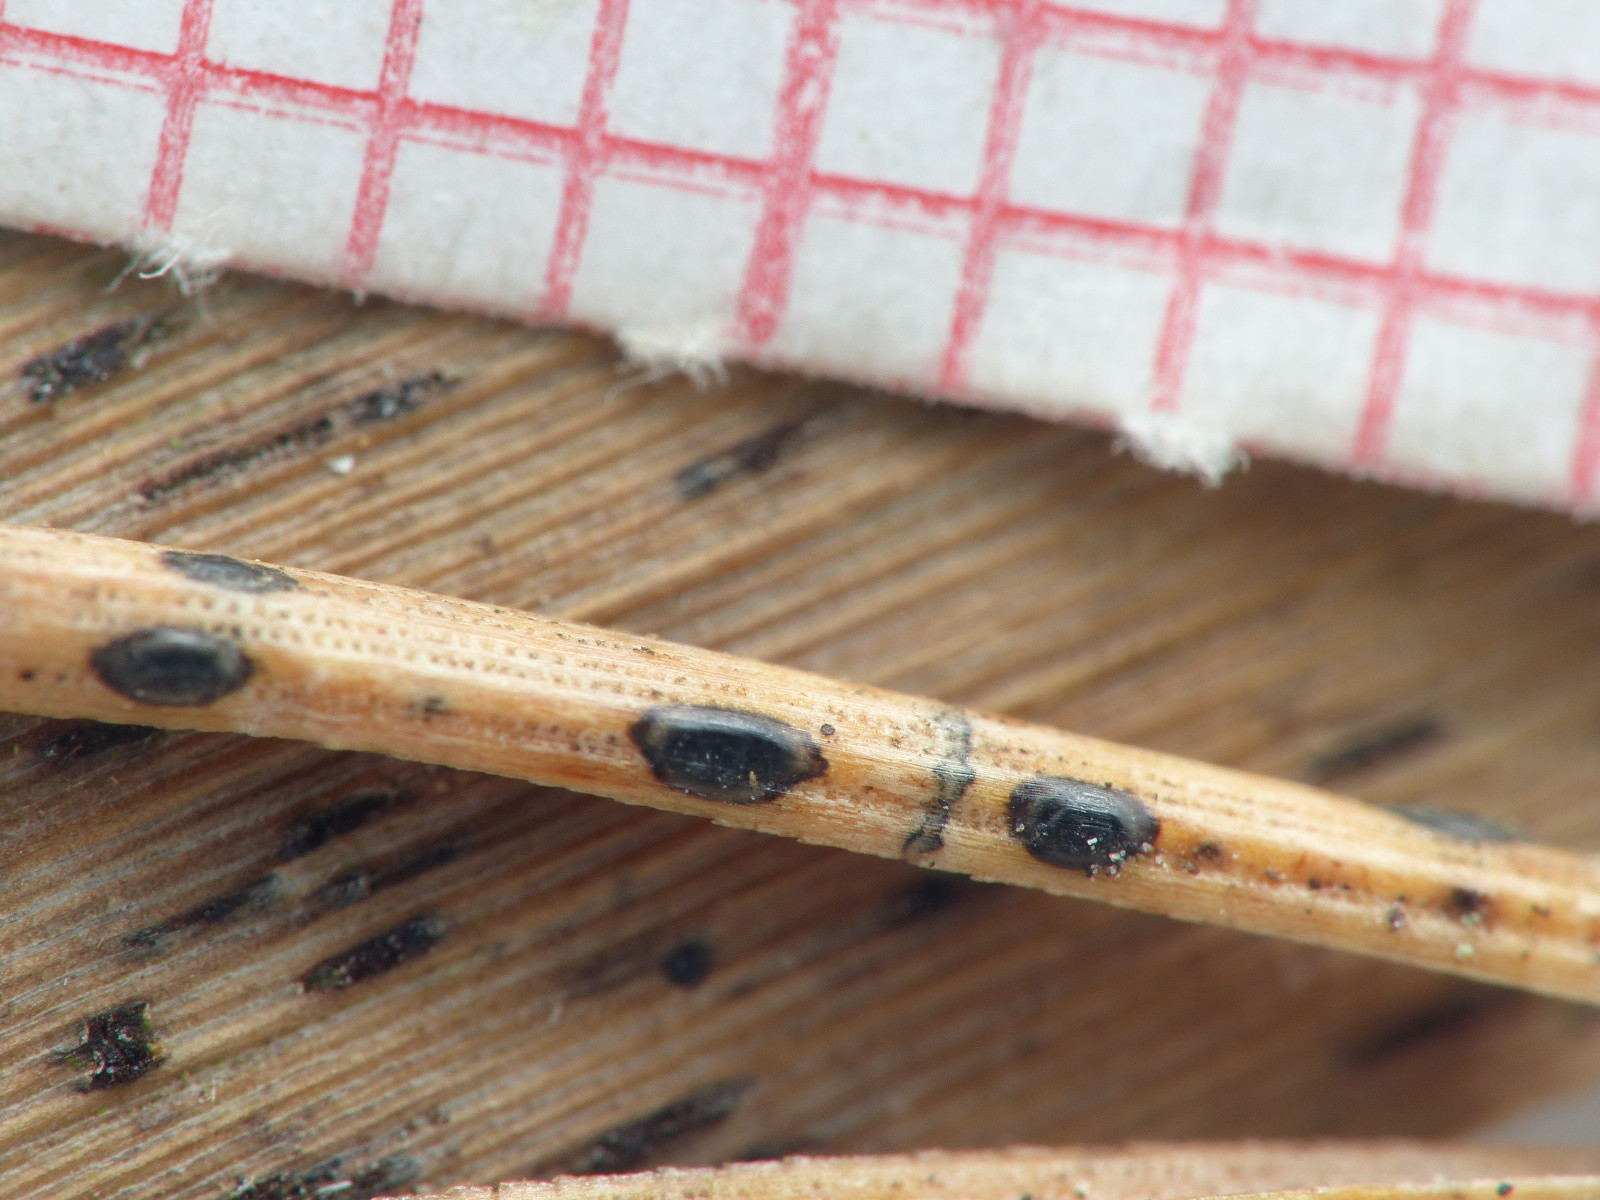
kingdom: Fungi
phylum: Ascomycota
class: Leotiomycetes
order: Rhytismatales
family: Rhytismataceae
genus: Lophodermium
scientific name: Lophodermium pinastri
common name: fyrre-fureplet
